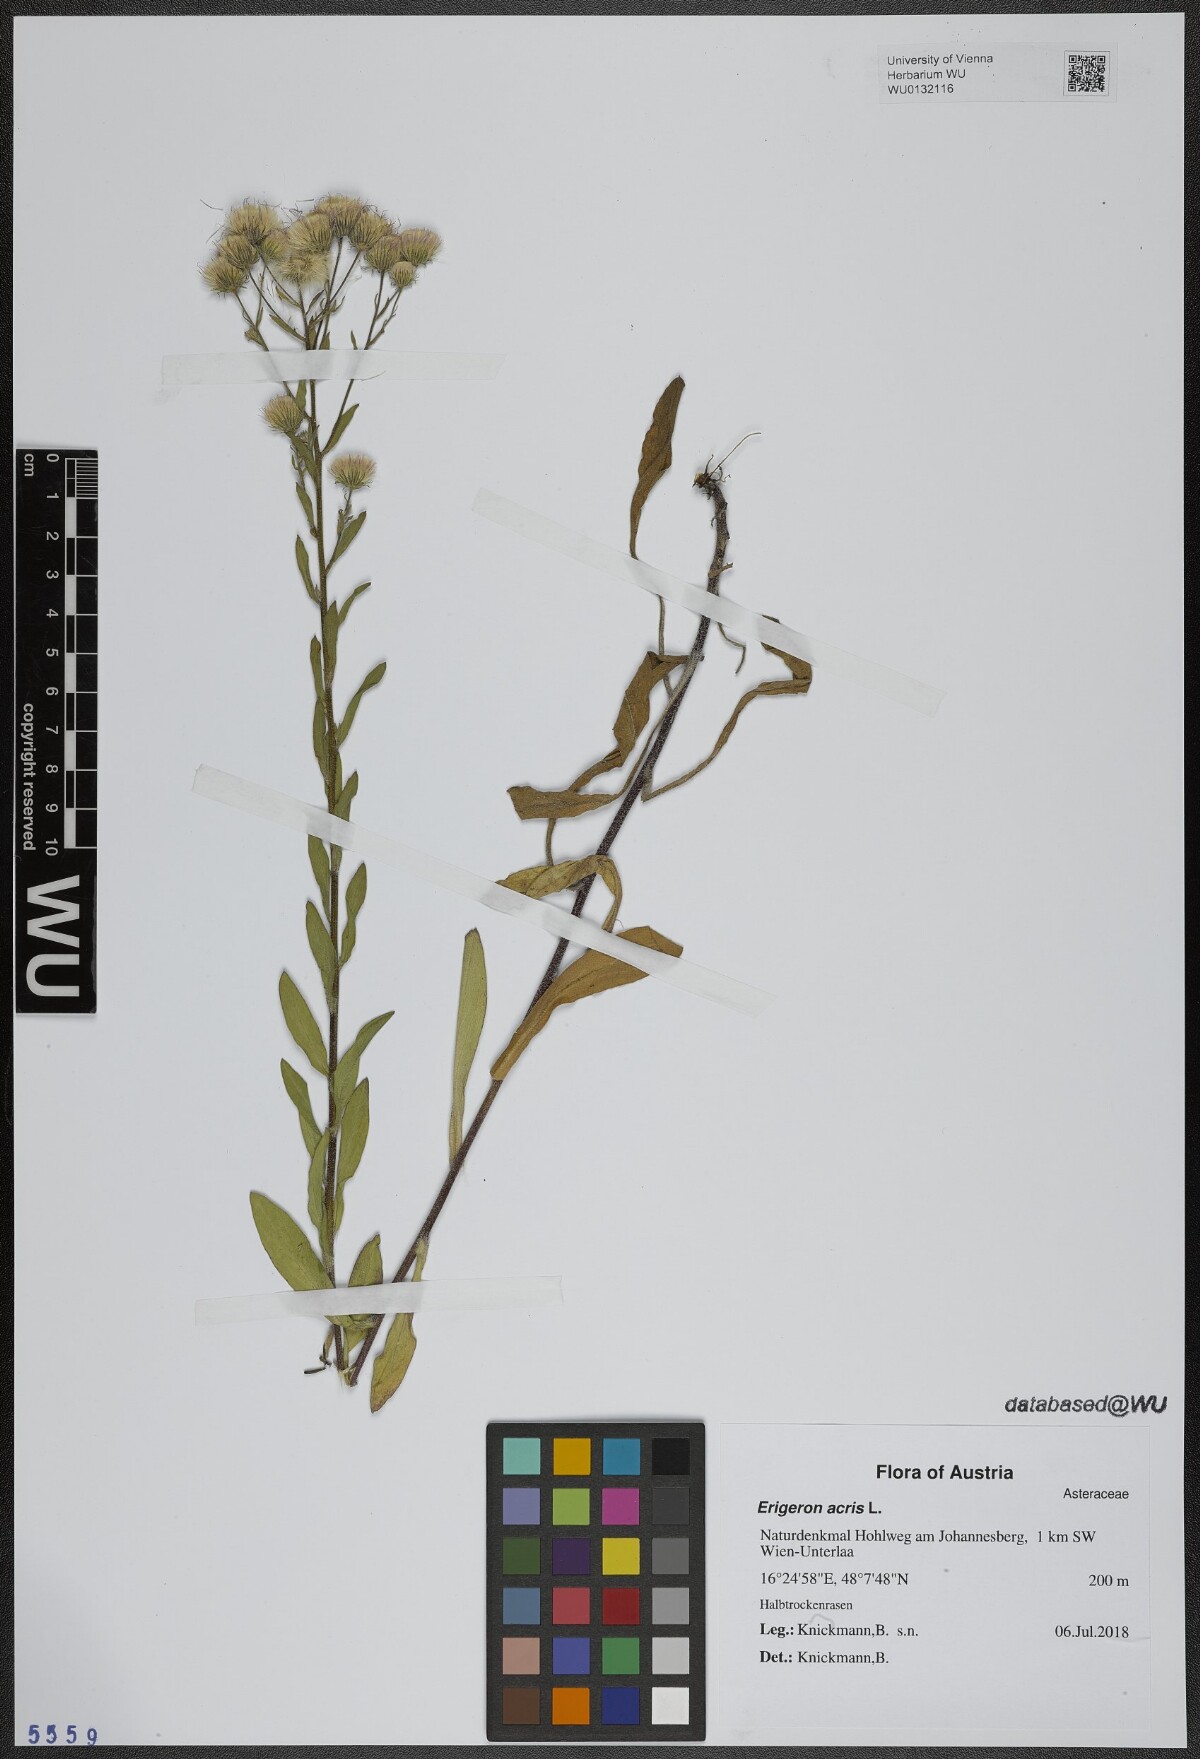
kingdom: Plantae
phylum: Tracheophyta
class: Magnoliopsida
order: Asterales
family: Asteraceae
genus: Erigeron
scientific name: Erigeron acris
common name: Blue fleabane
